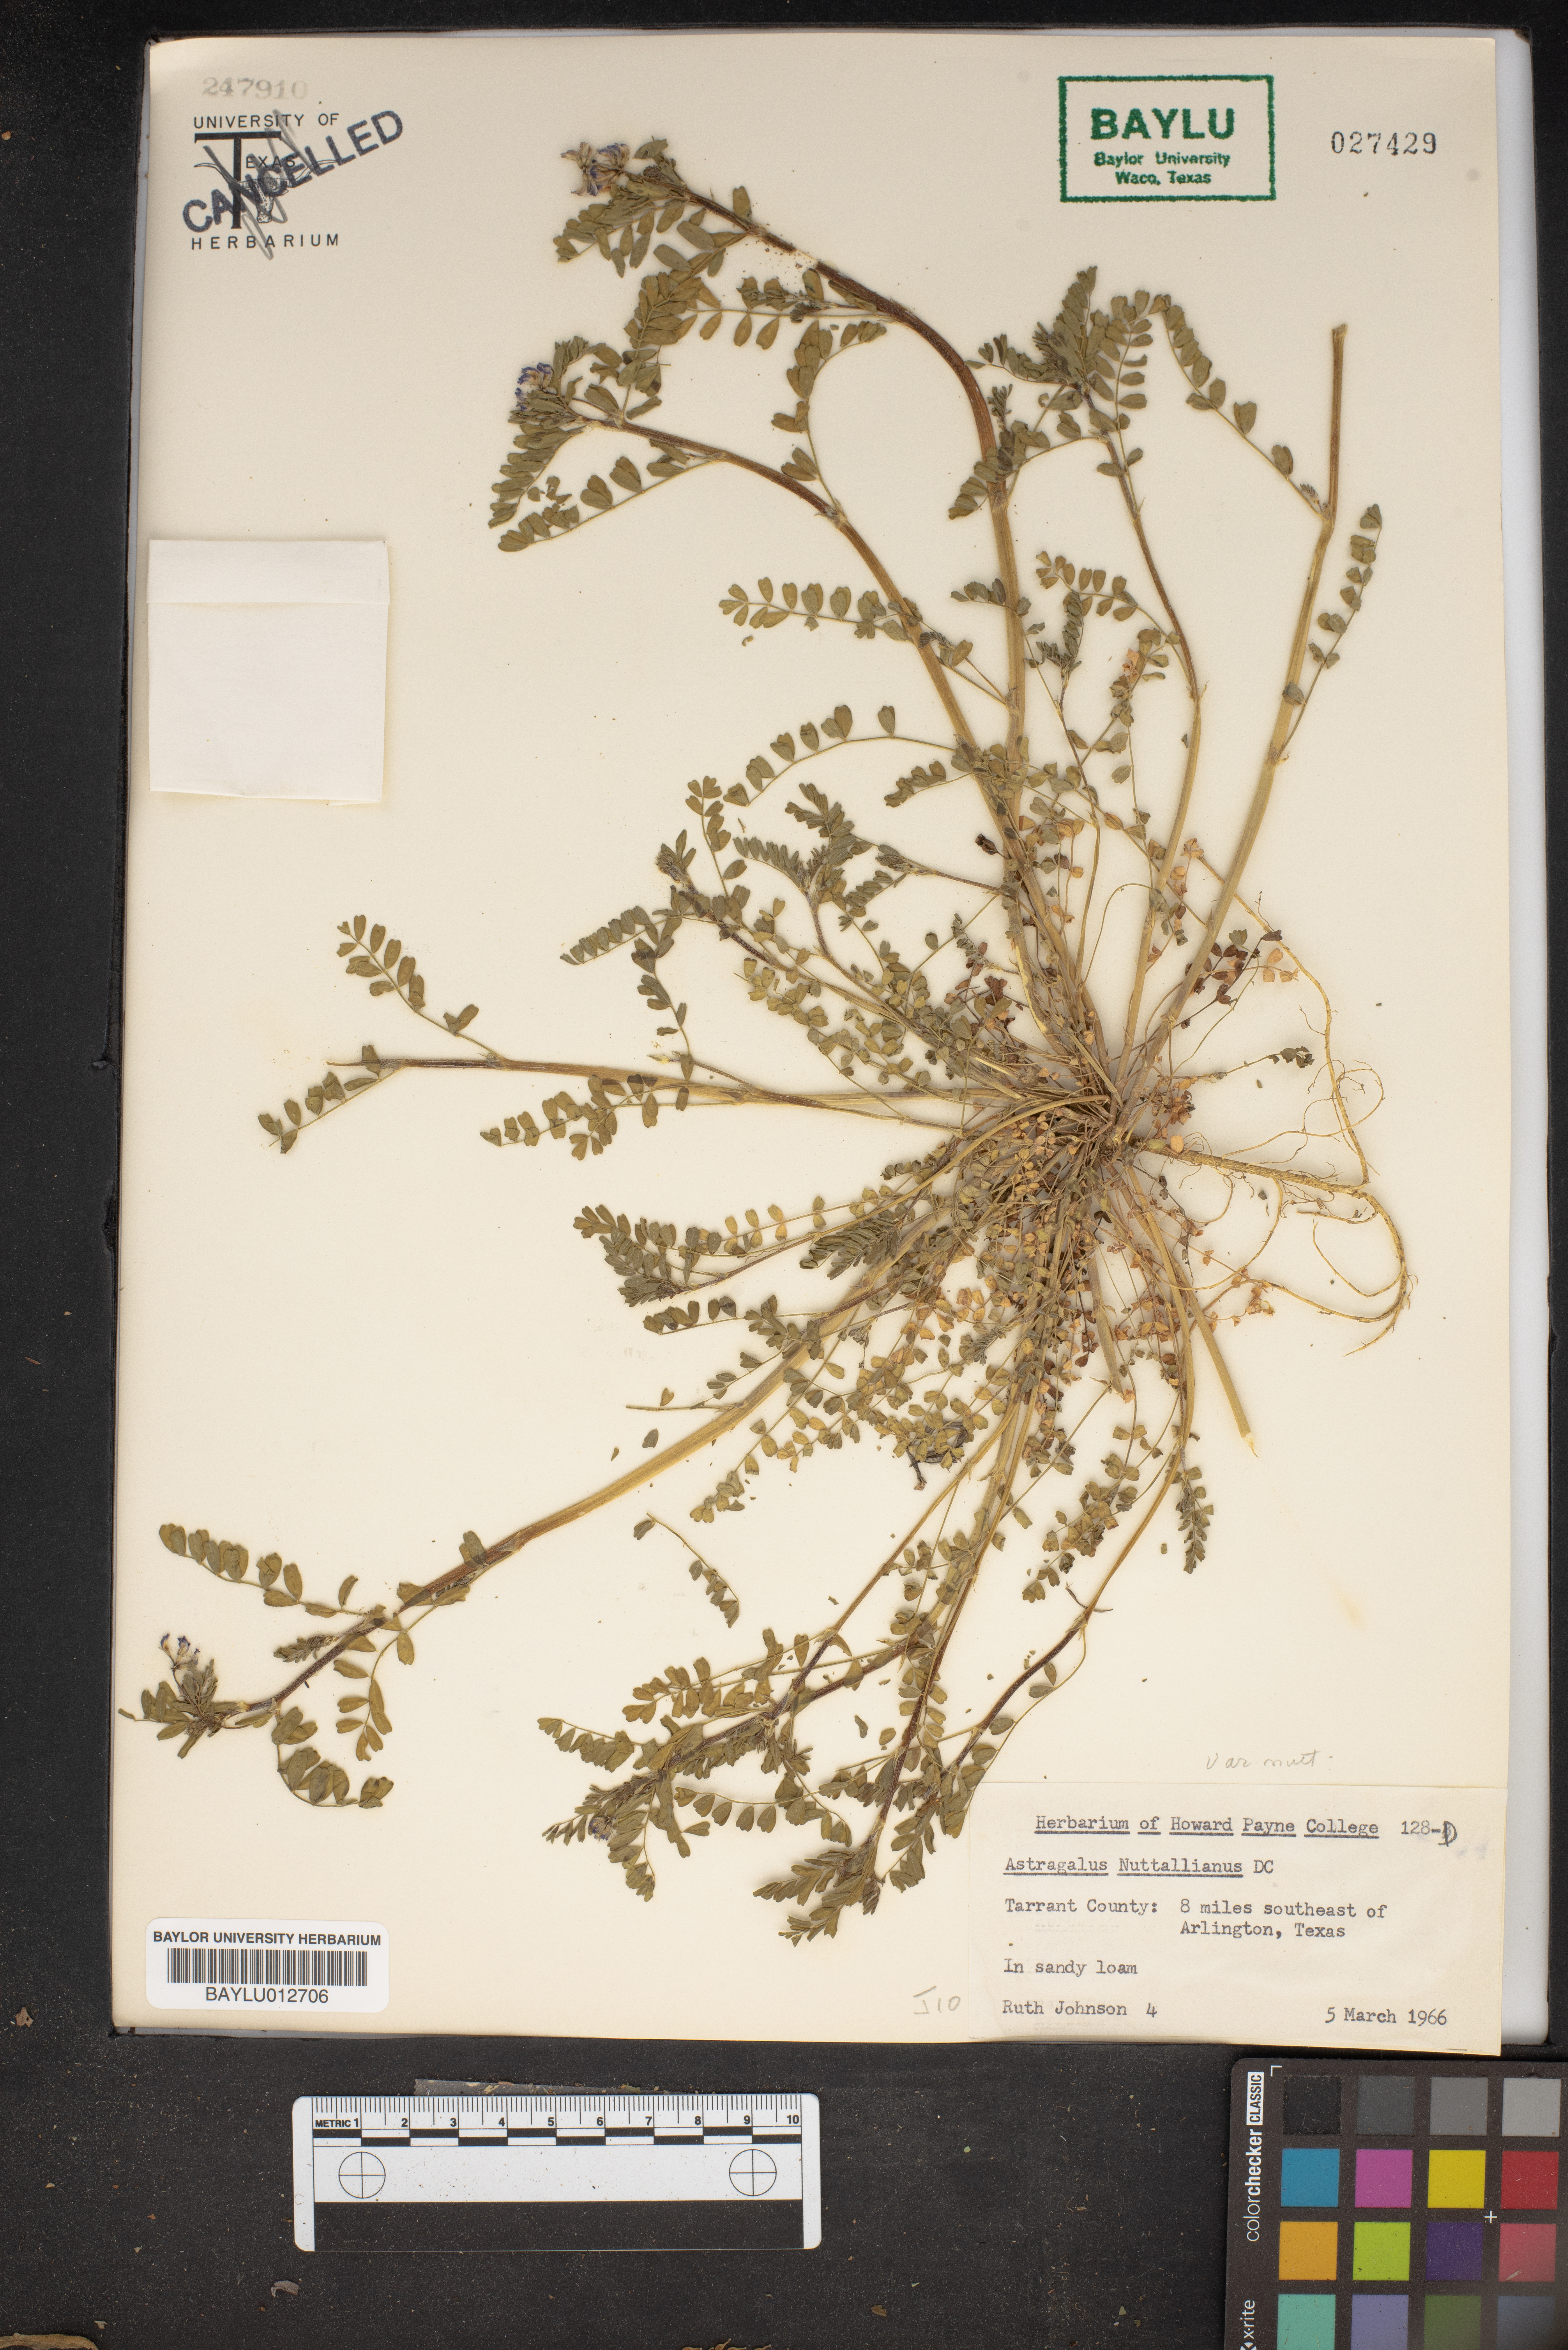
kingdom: Plantae
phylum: Tracheophyta
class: Magnoliopsida
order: Fabales
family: Fabaceae
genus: Astragalus
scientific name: Astragalus nuttallianus
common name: Smallflowered milkvetch
